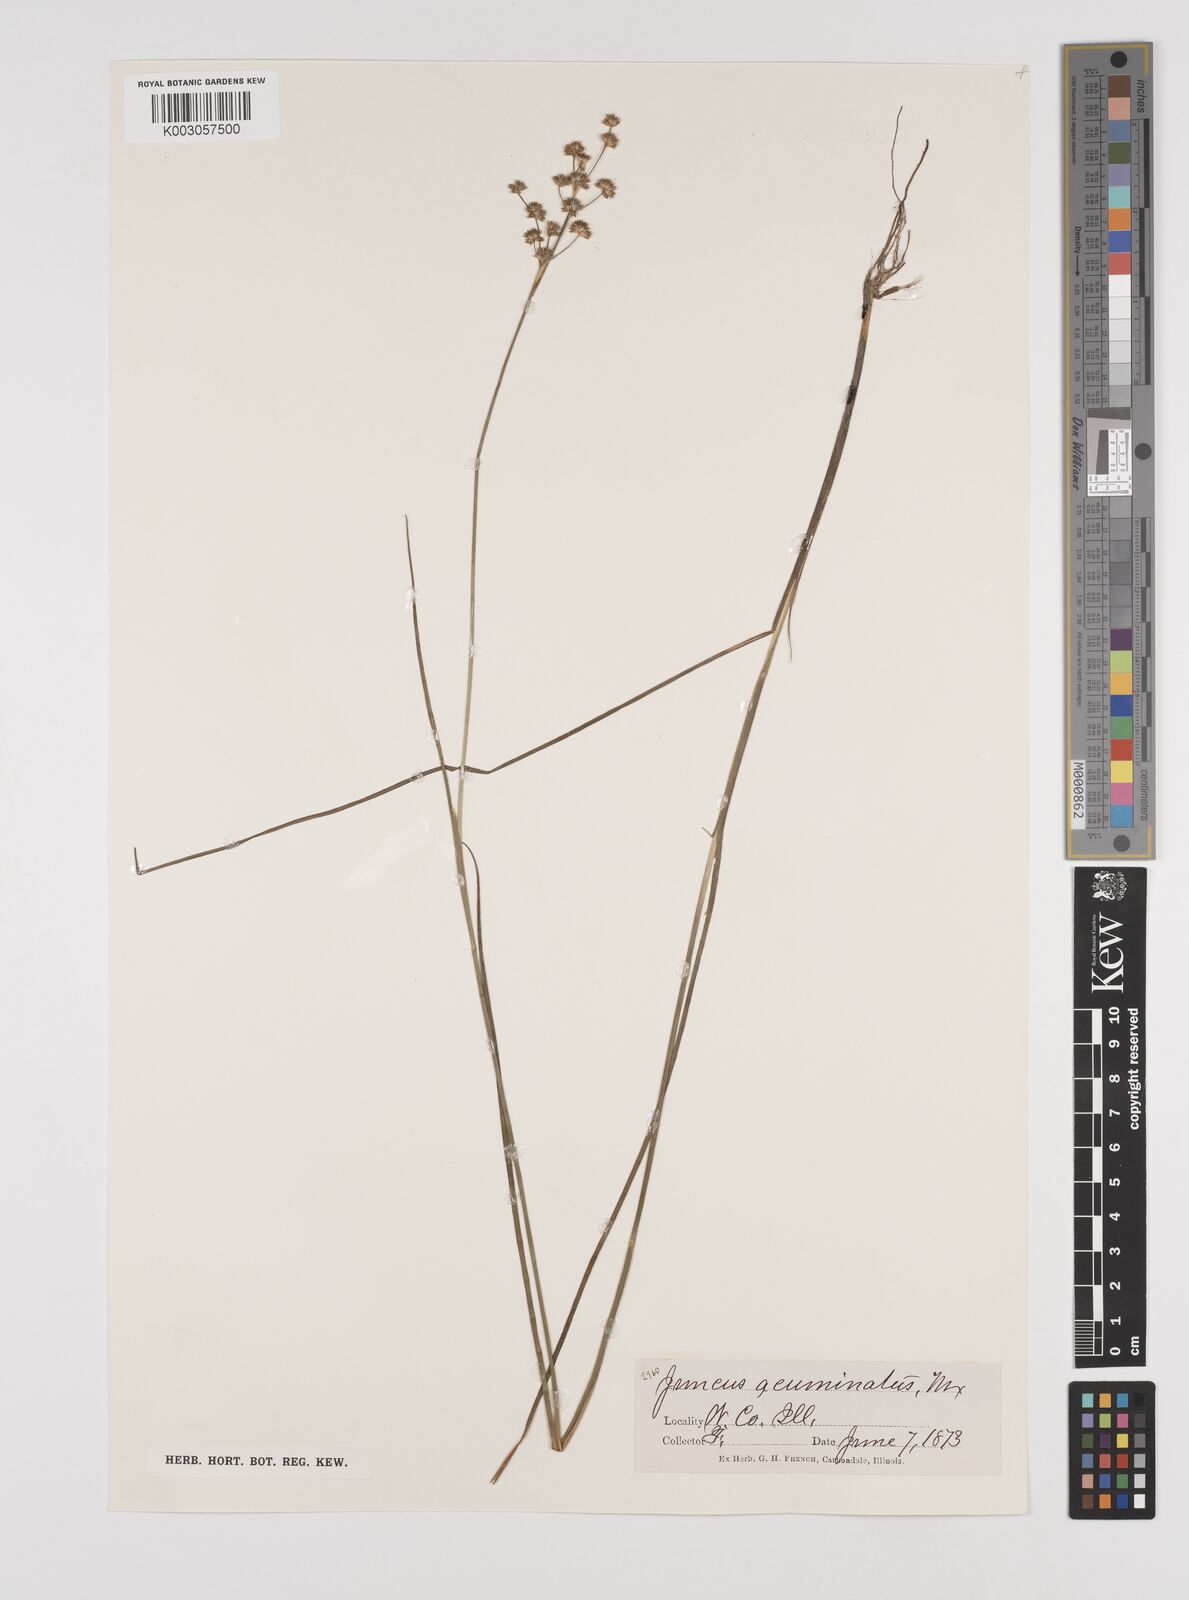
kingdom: Plantae
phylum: Tracheophyta
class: Liliopsida
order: Poales
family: Juncaceae
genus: Juncus
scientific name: Juncus acuminatus
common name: Knotty-leaved rush
